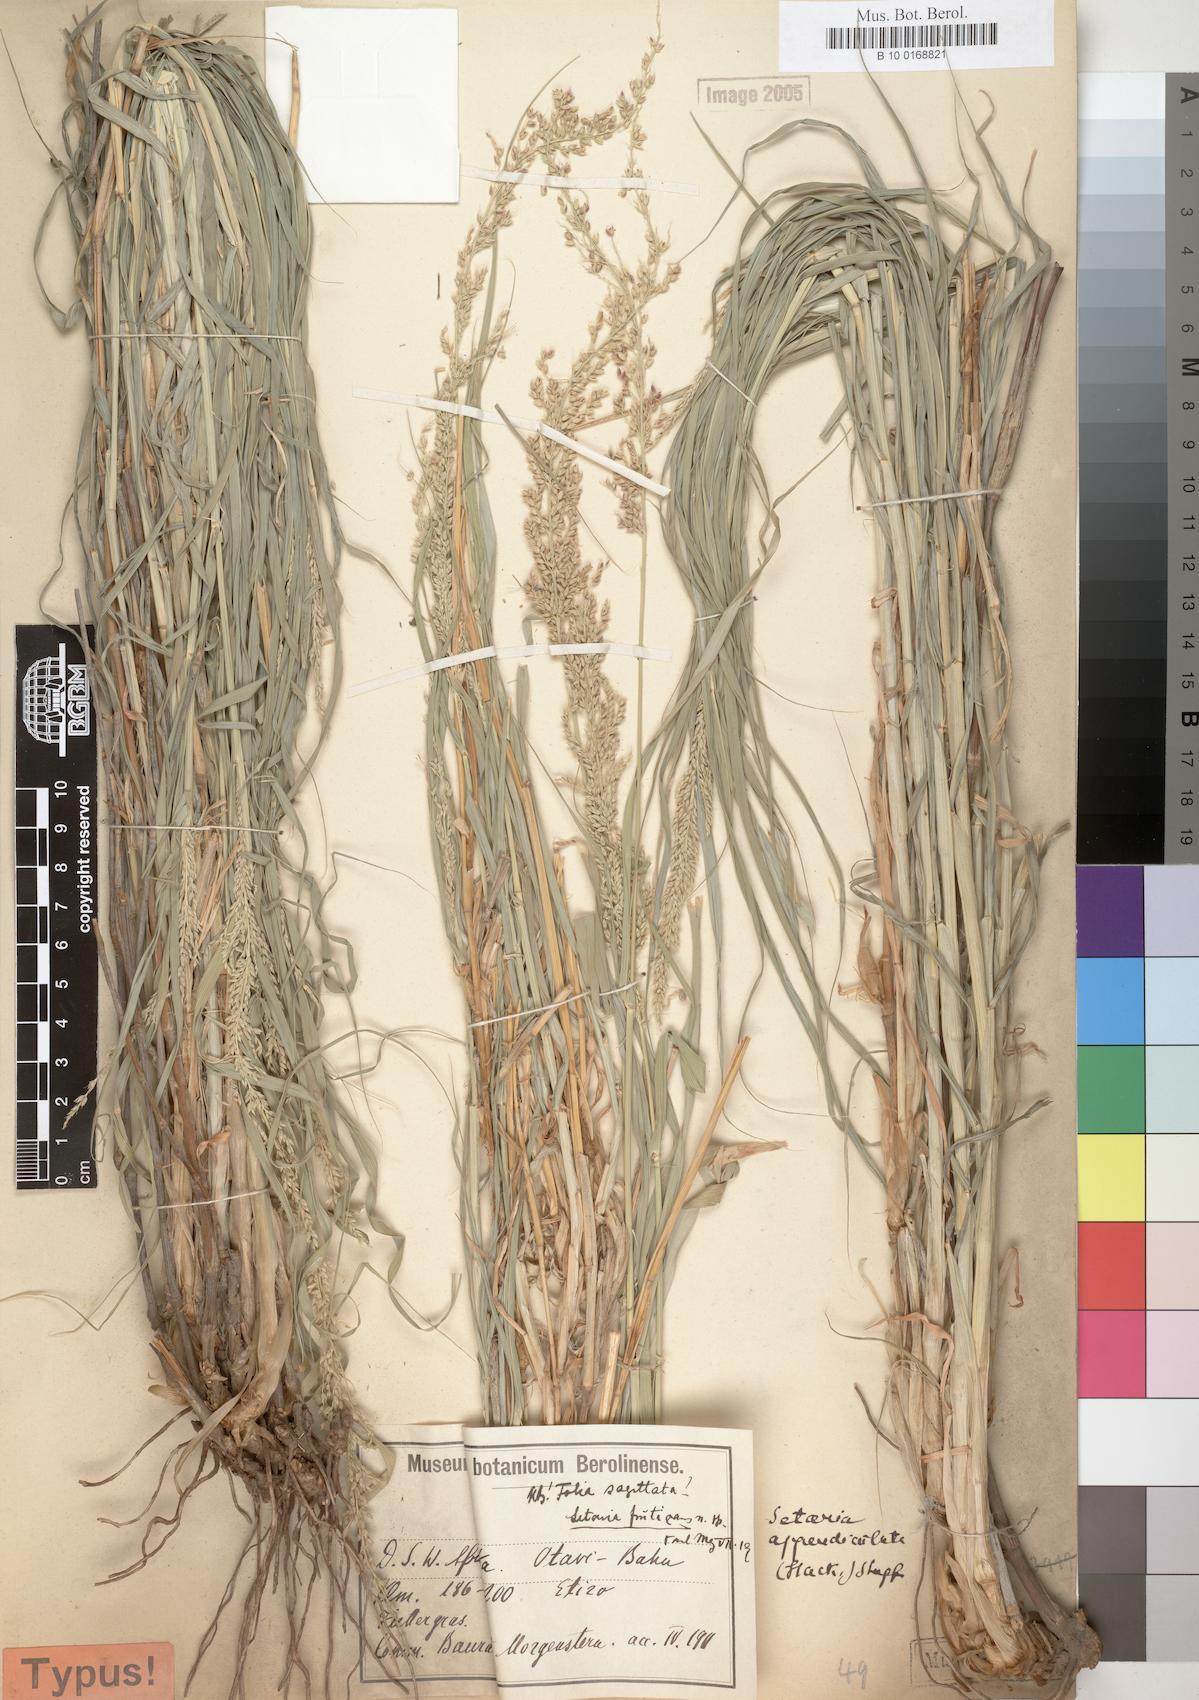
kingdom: Plantae
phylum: Tracheophyta
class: Liliopsida
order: Poales
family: Poaceae
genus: Setaria
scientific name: Setaria
